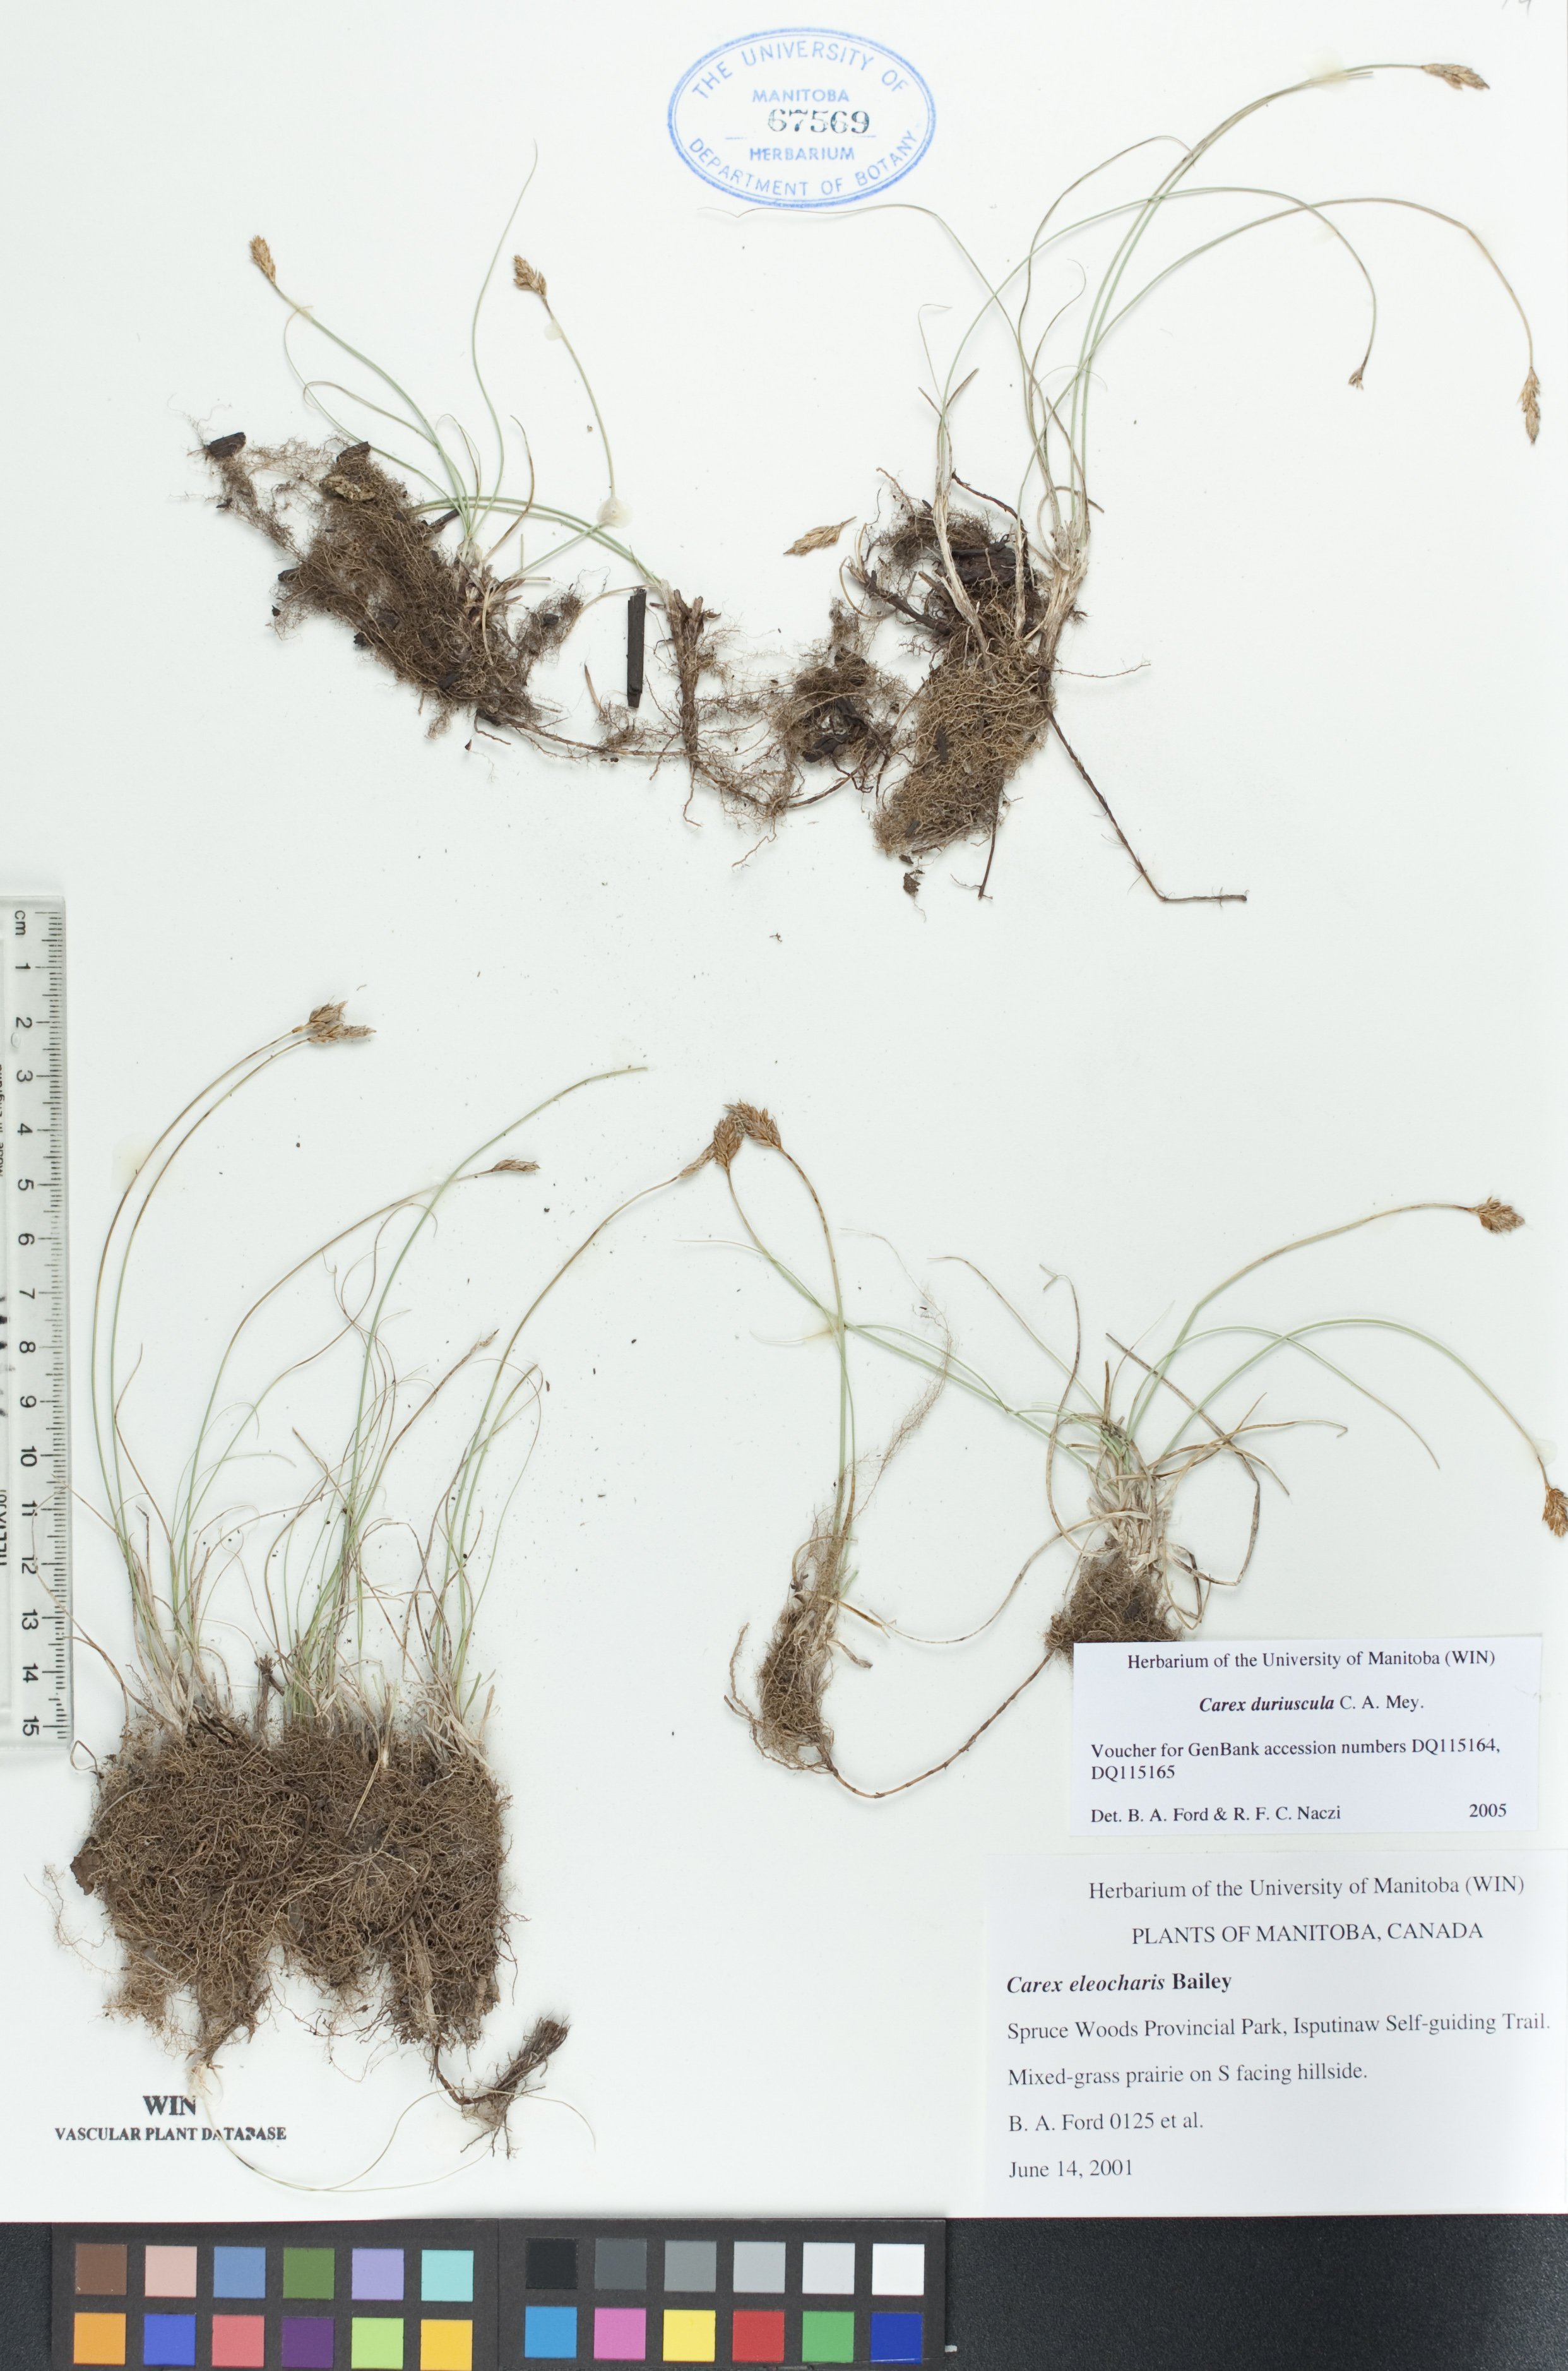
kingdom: Plantae
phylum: Tracheophyta
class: Liliopsida
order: Poales
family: Cyperaceae
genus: Carex
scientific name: Carex duriuscula
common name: Involute-leaved sedge
